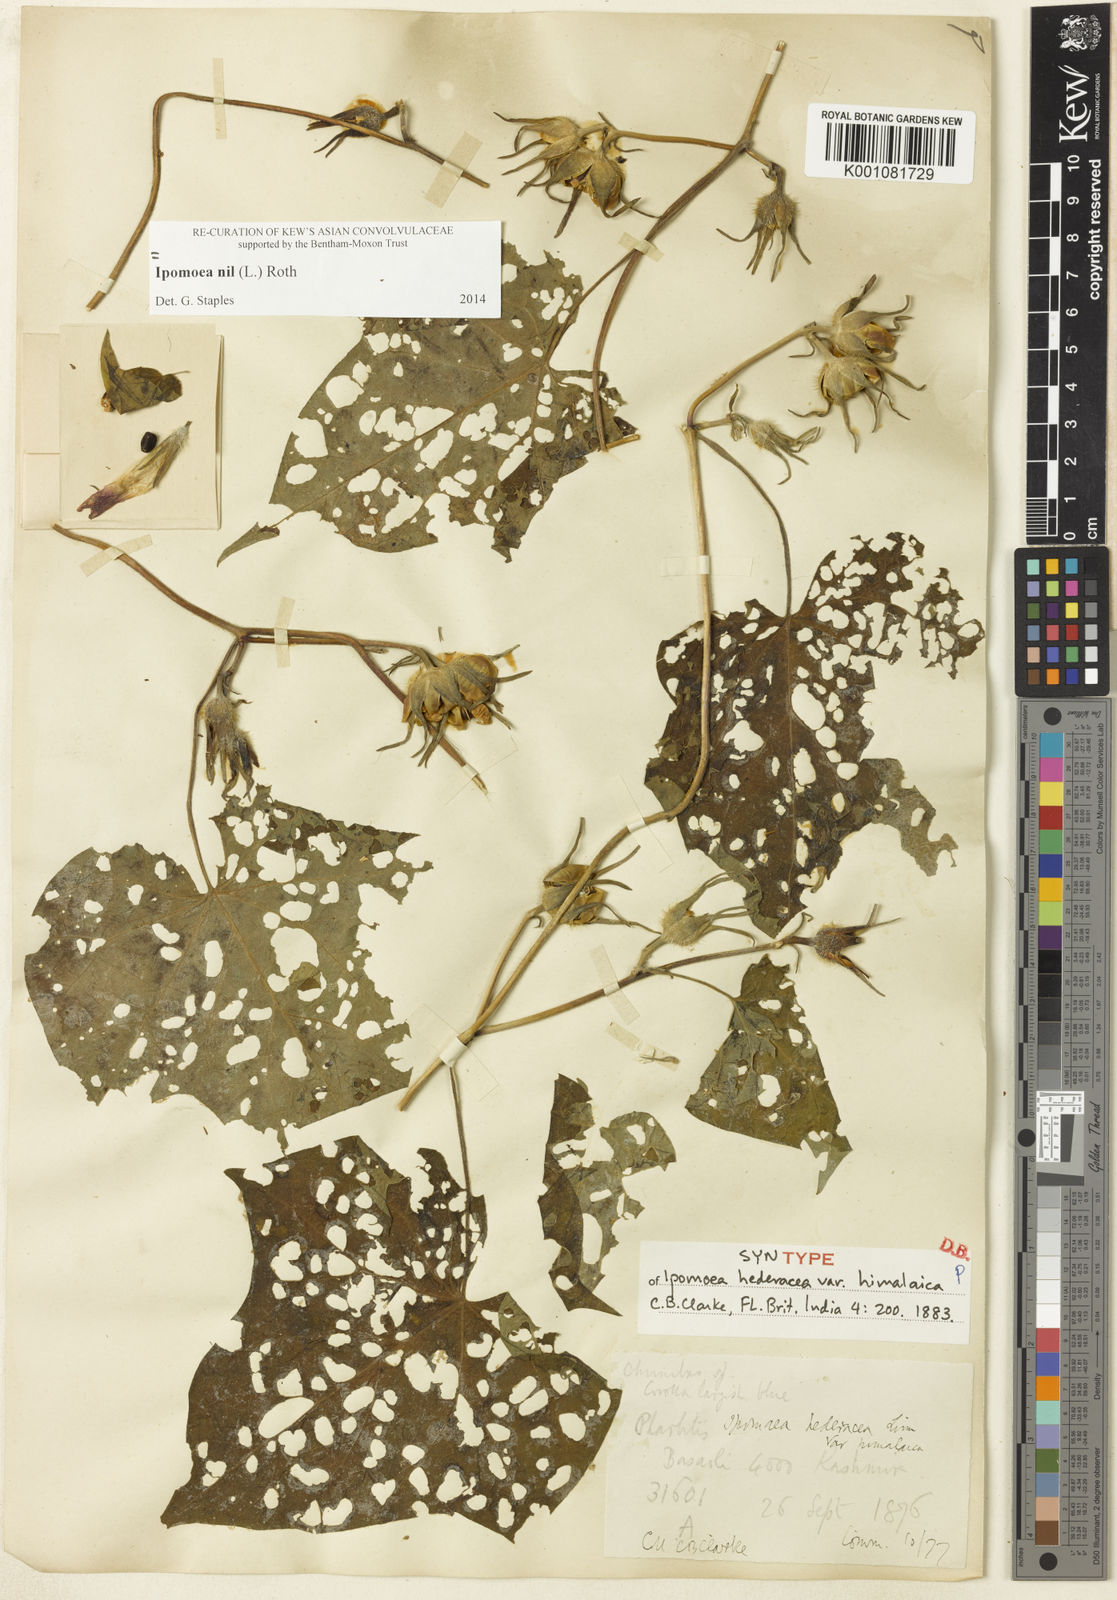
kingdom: Plantae
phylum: Tracheophyta
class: Magnoliopsida
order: Solanales
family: Convolvulaceae
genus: Ipomoea
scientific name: Ipomoea nil
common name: Japanese morning-glory
